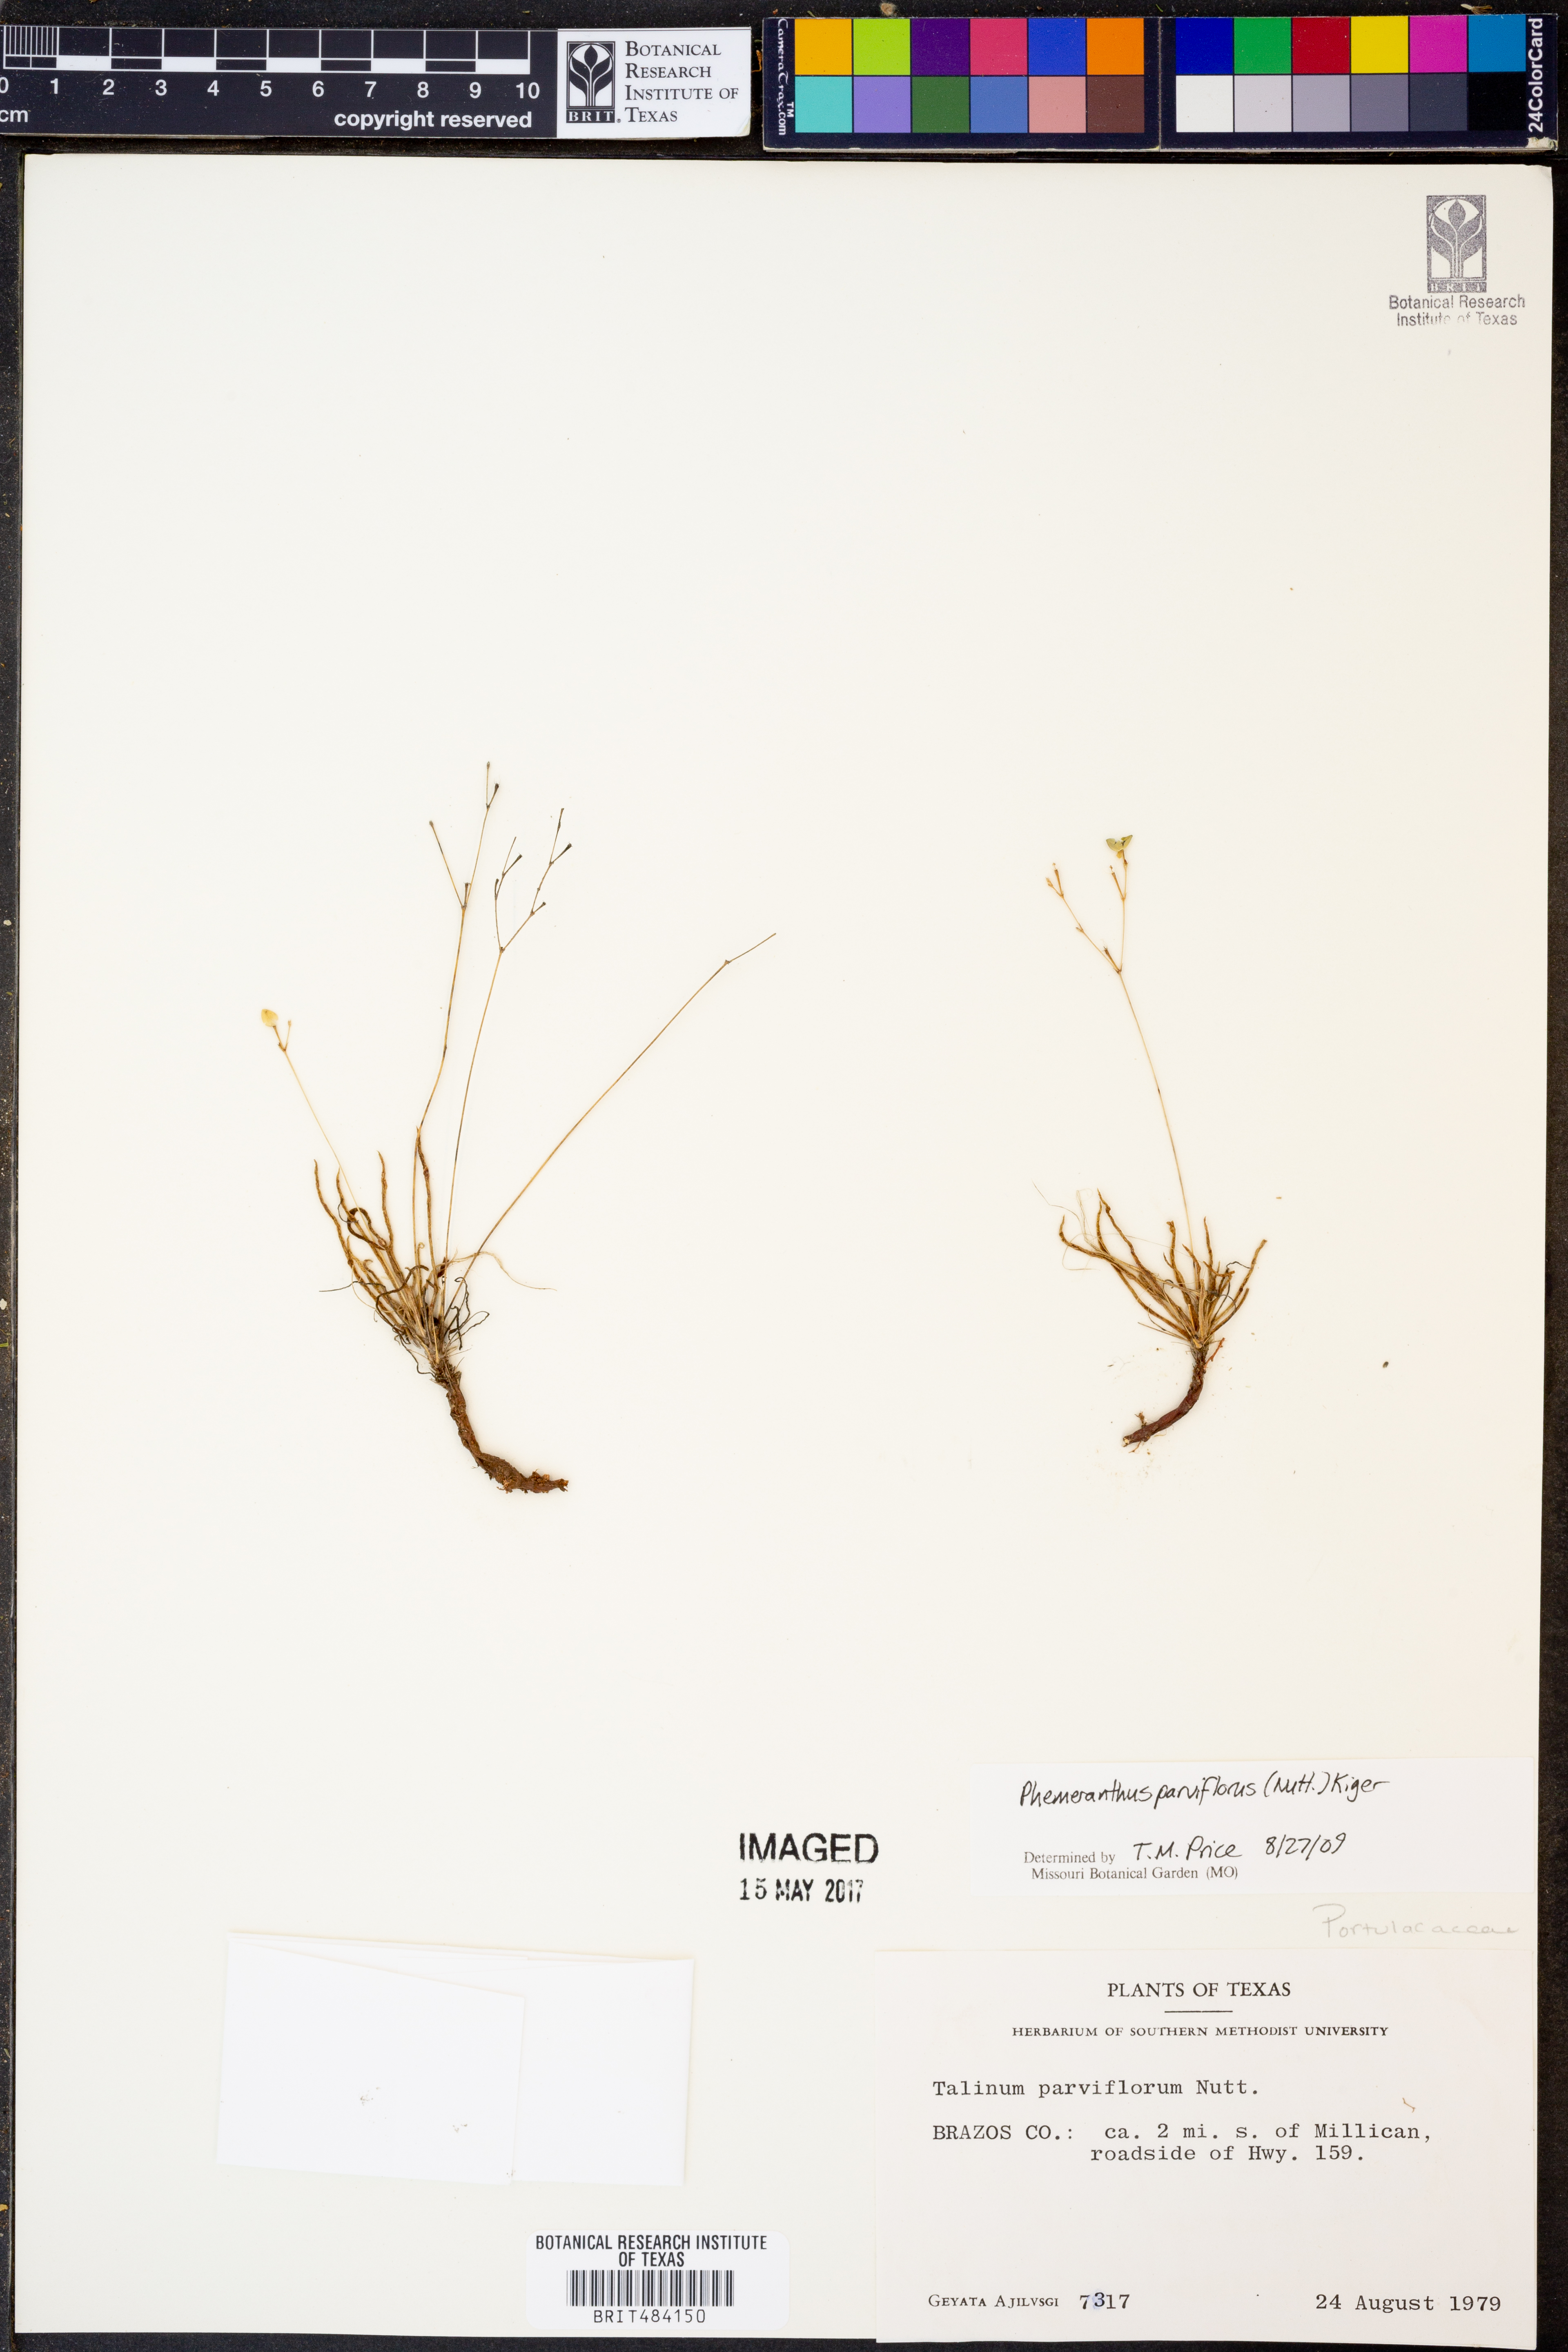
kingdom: Plantae
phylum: Tracheophyta
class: Magnoliopsida
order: Caryophyllales
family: Montiaceae
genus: Phemeranthus
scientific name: Phemeranthus parviflorus
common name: Sunbright
